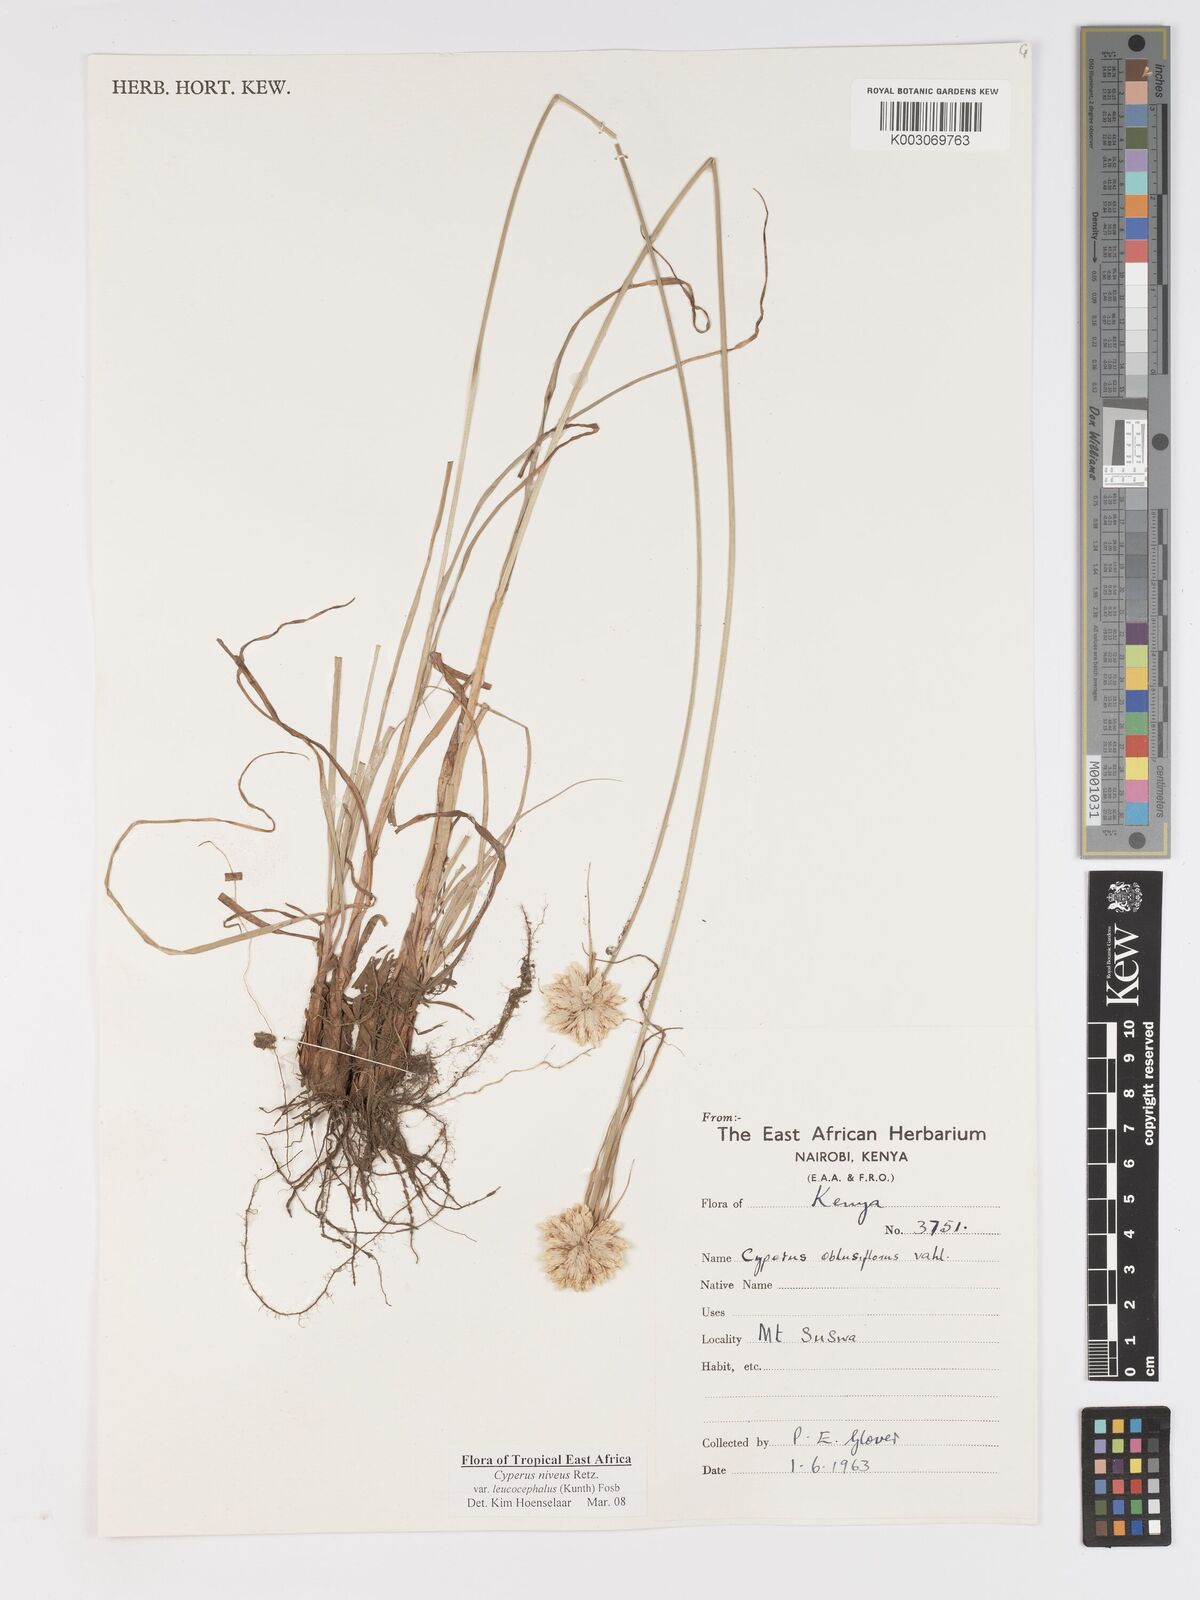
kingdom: Plantae
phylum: Tracheophyta
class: Liliopsida
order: Poales
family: Cyperaceae
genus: Cyperus
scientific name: Cyperus niveus
